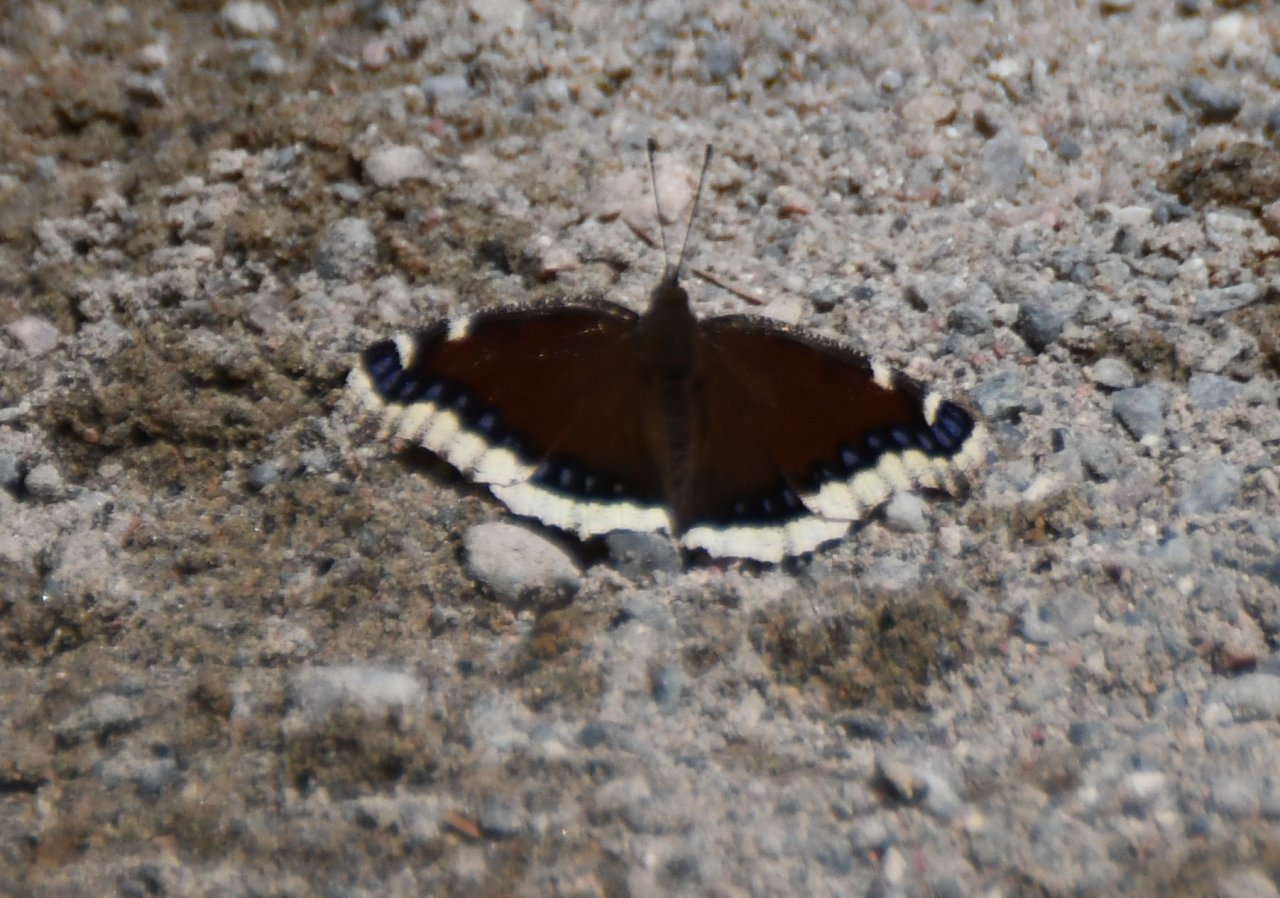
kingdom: Animalia
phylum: Arthropoda
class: Insecta
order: Lepidoptera
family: Nymphalidae
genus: Nymphalis
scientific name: Nymphalis antiopa
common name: Mourning Cloak
